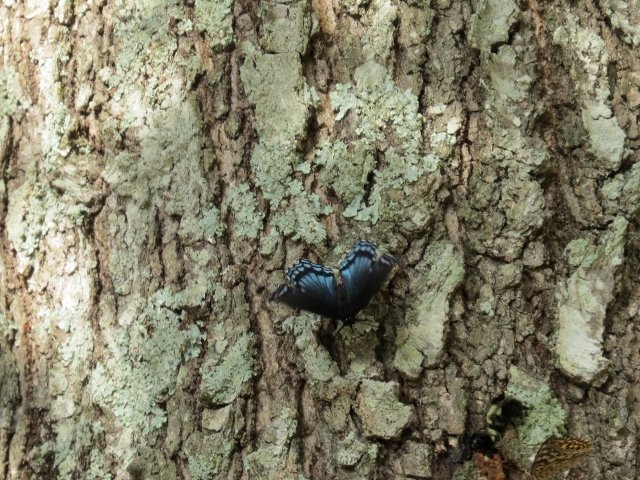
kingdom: Animalia
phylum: Arthropoda
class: Insecta
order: Lepidoptera
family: Nymphalidae
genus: Limenitis
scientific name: Limenitis astyanax
